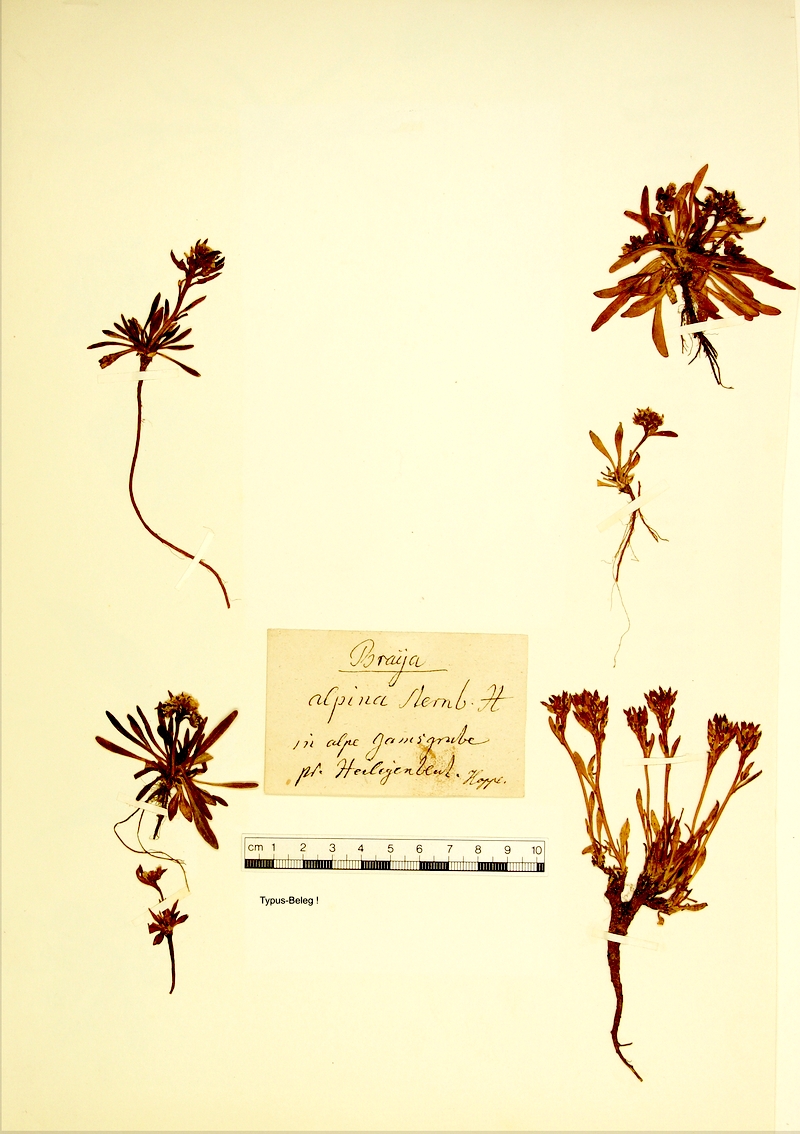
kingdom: Plantae
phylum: Tracheophyta
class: Magnoliopsida
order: Brassicales
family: Brassicaceae
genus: Braya
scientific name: Braya alpina
